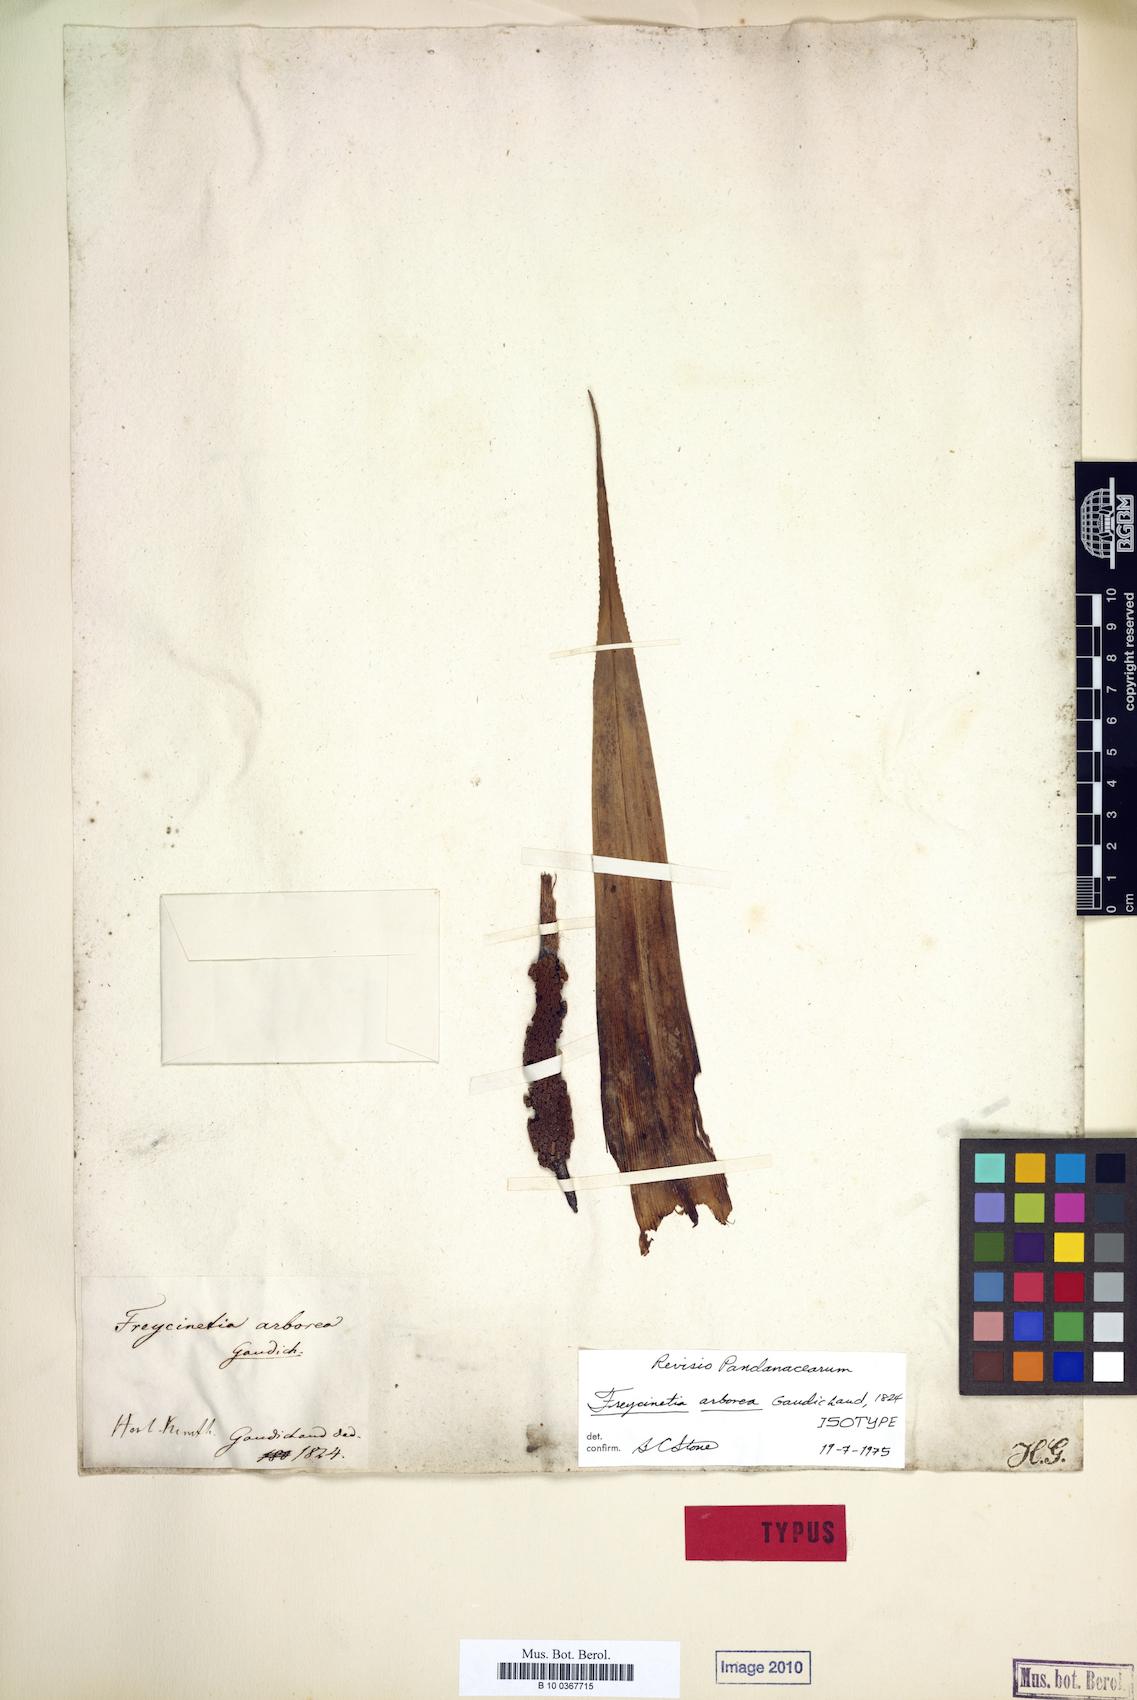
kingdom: Plantae
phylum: Tracheophyta
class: Liliopsida
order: Pandanales
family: Pandanaceae
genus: Freycinetia
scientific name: Freycinetia arborea
